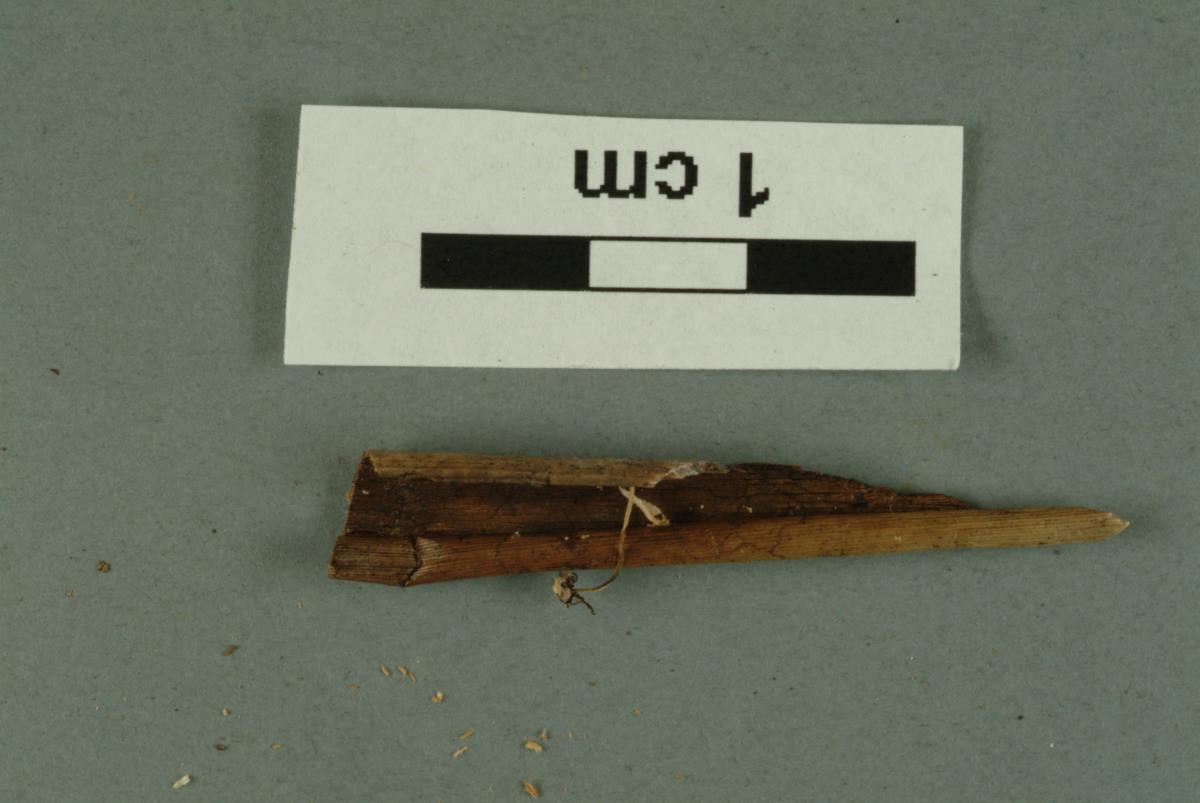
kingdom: Fungi
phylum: Ascomycota
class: Dothideomycetes
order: Tubeufiales
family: Tubeufiaceae
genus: Acanthohelicospora
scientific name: Acanthohelicospora aurea
